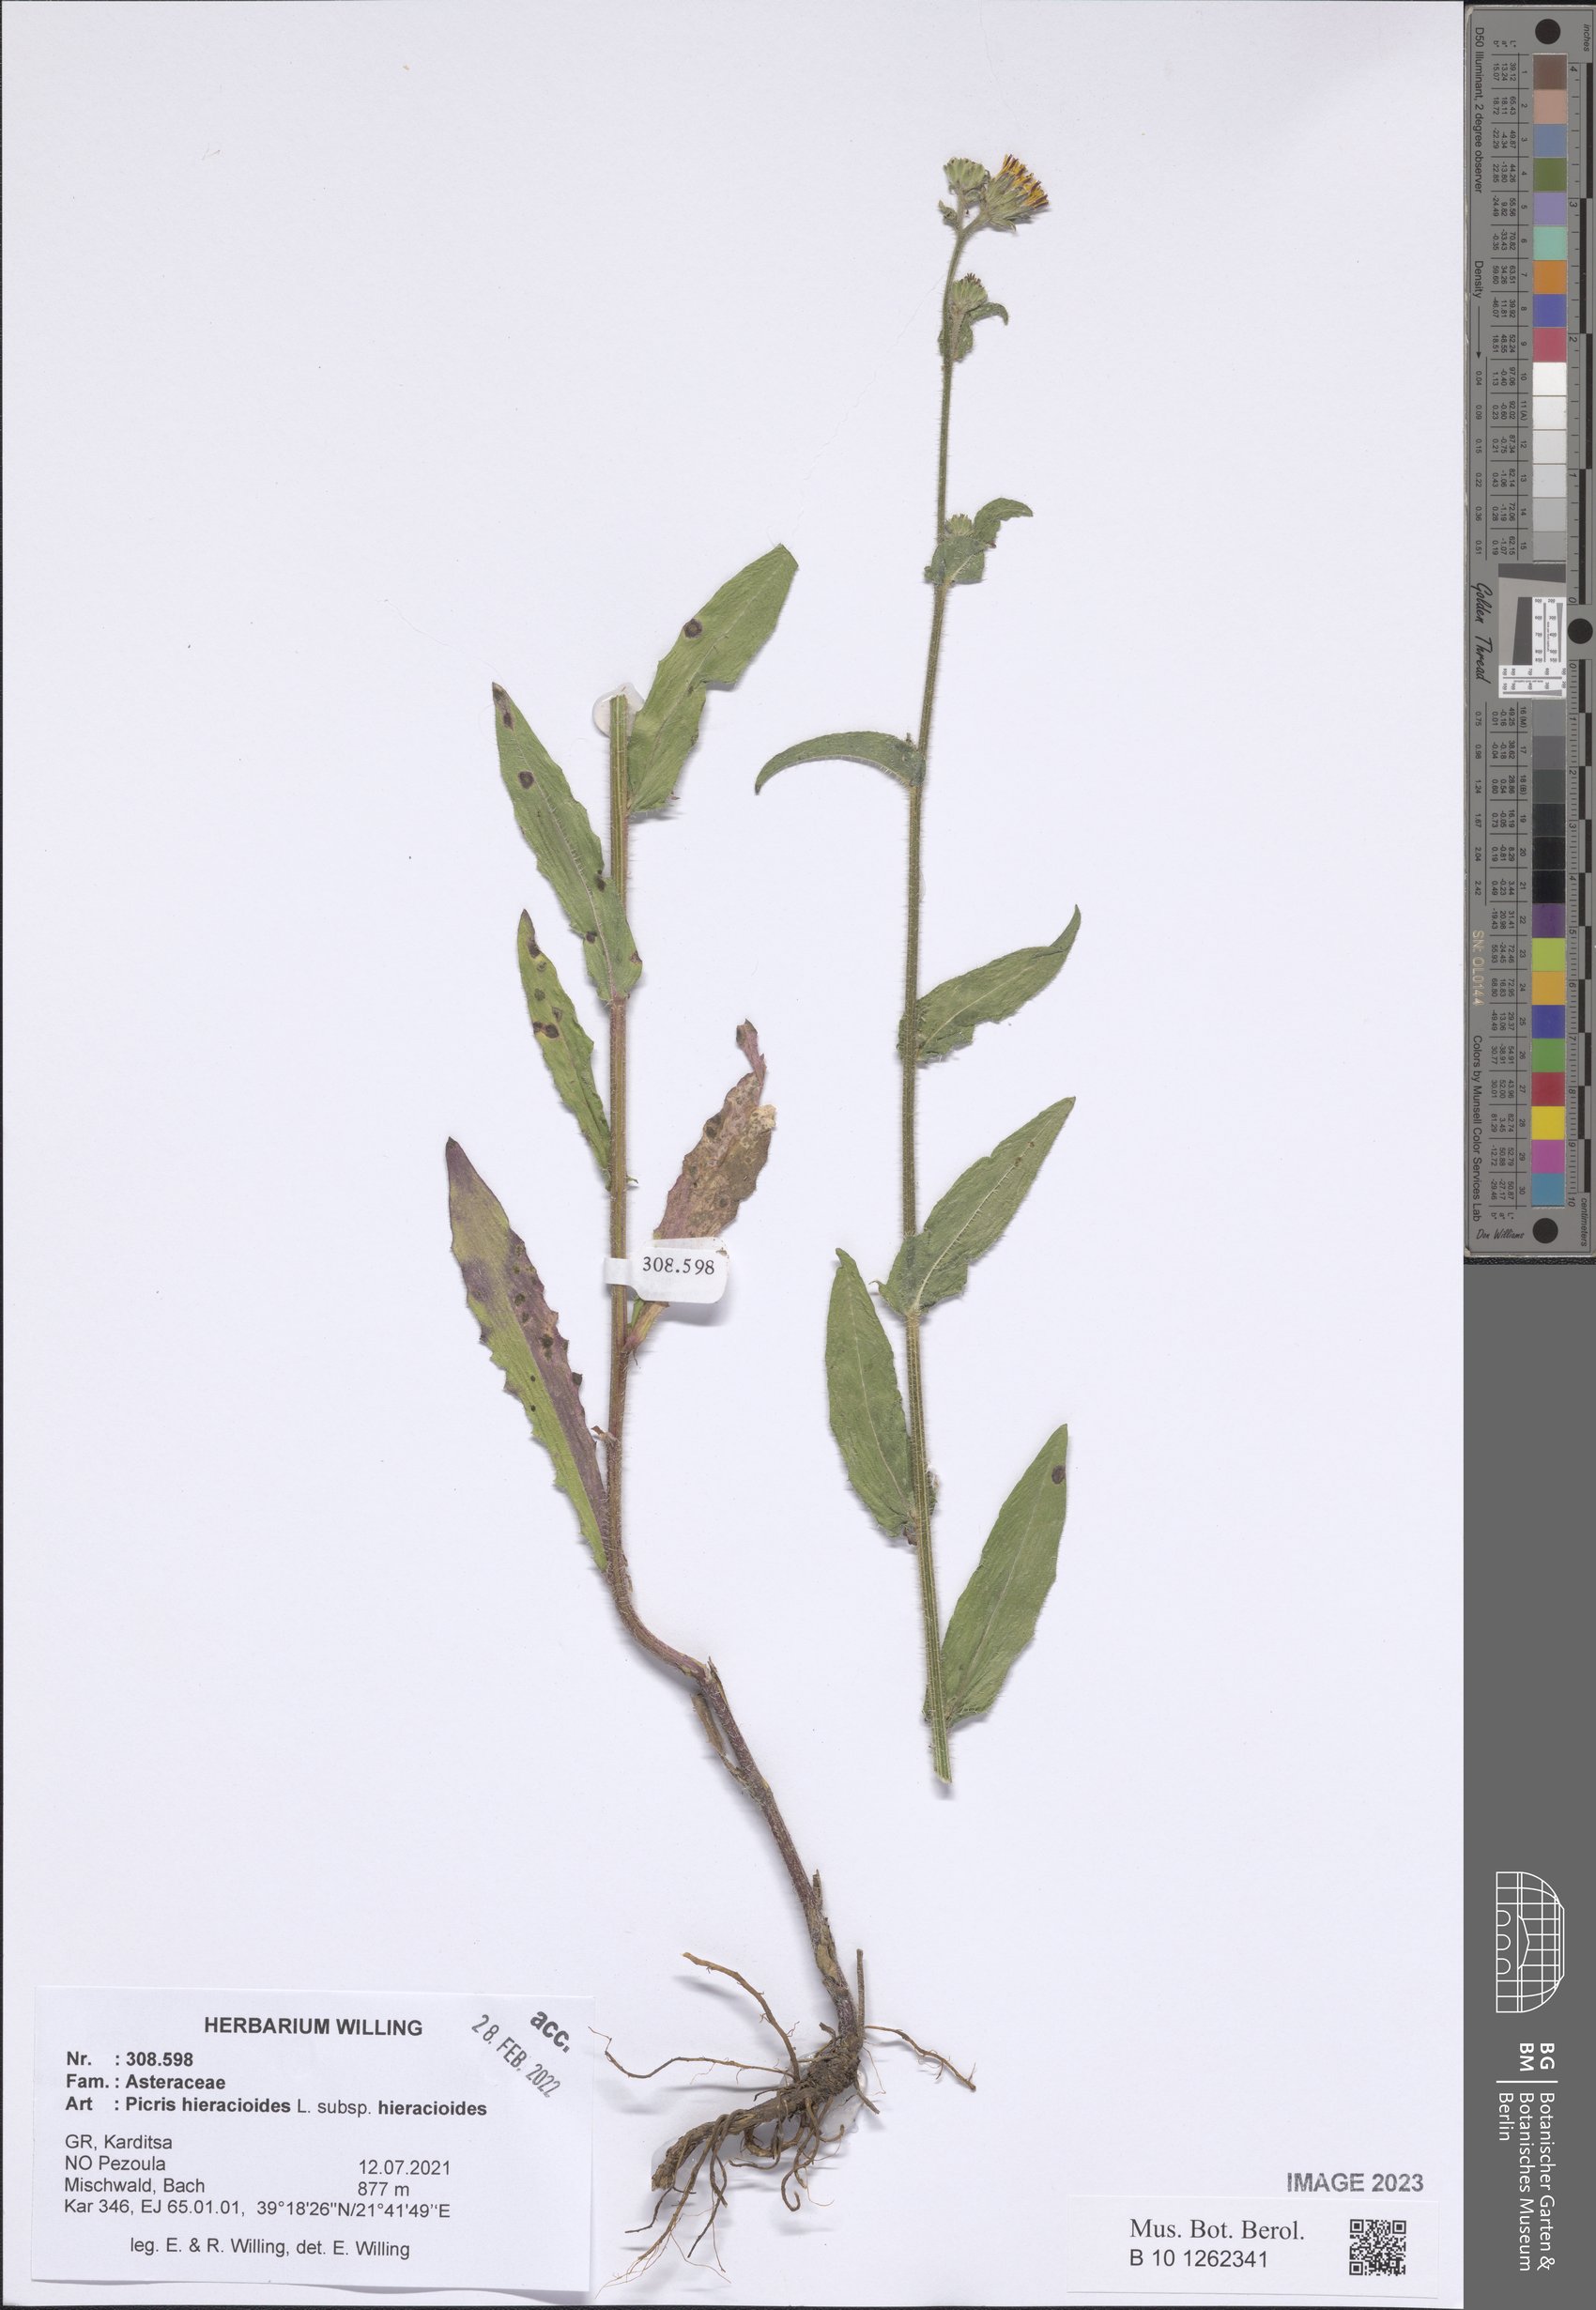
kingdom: Plantae
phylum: Tracheophyta
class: Magnoliopsida
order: Asterales
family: Asteraceae
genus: Picris
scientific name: Picris hieracioides
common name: Hawkweed oxtongue
